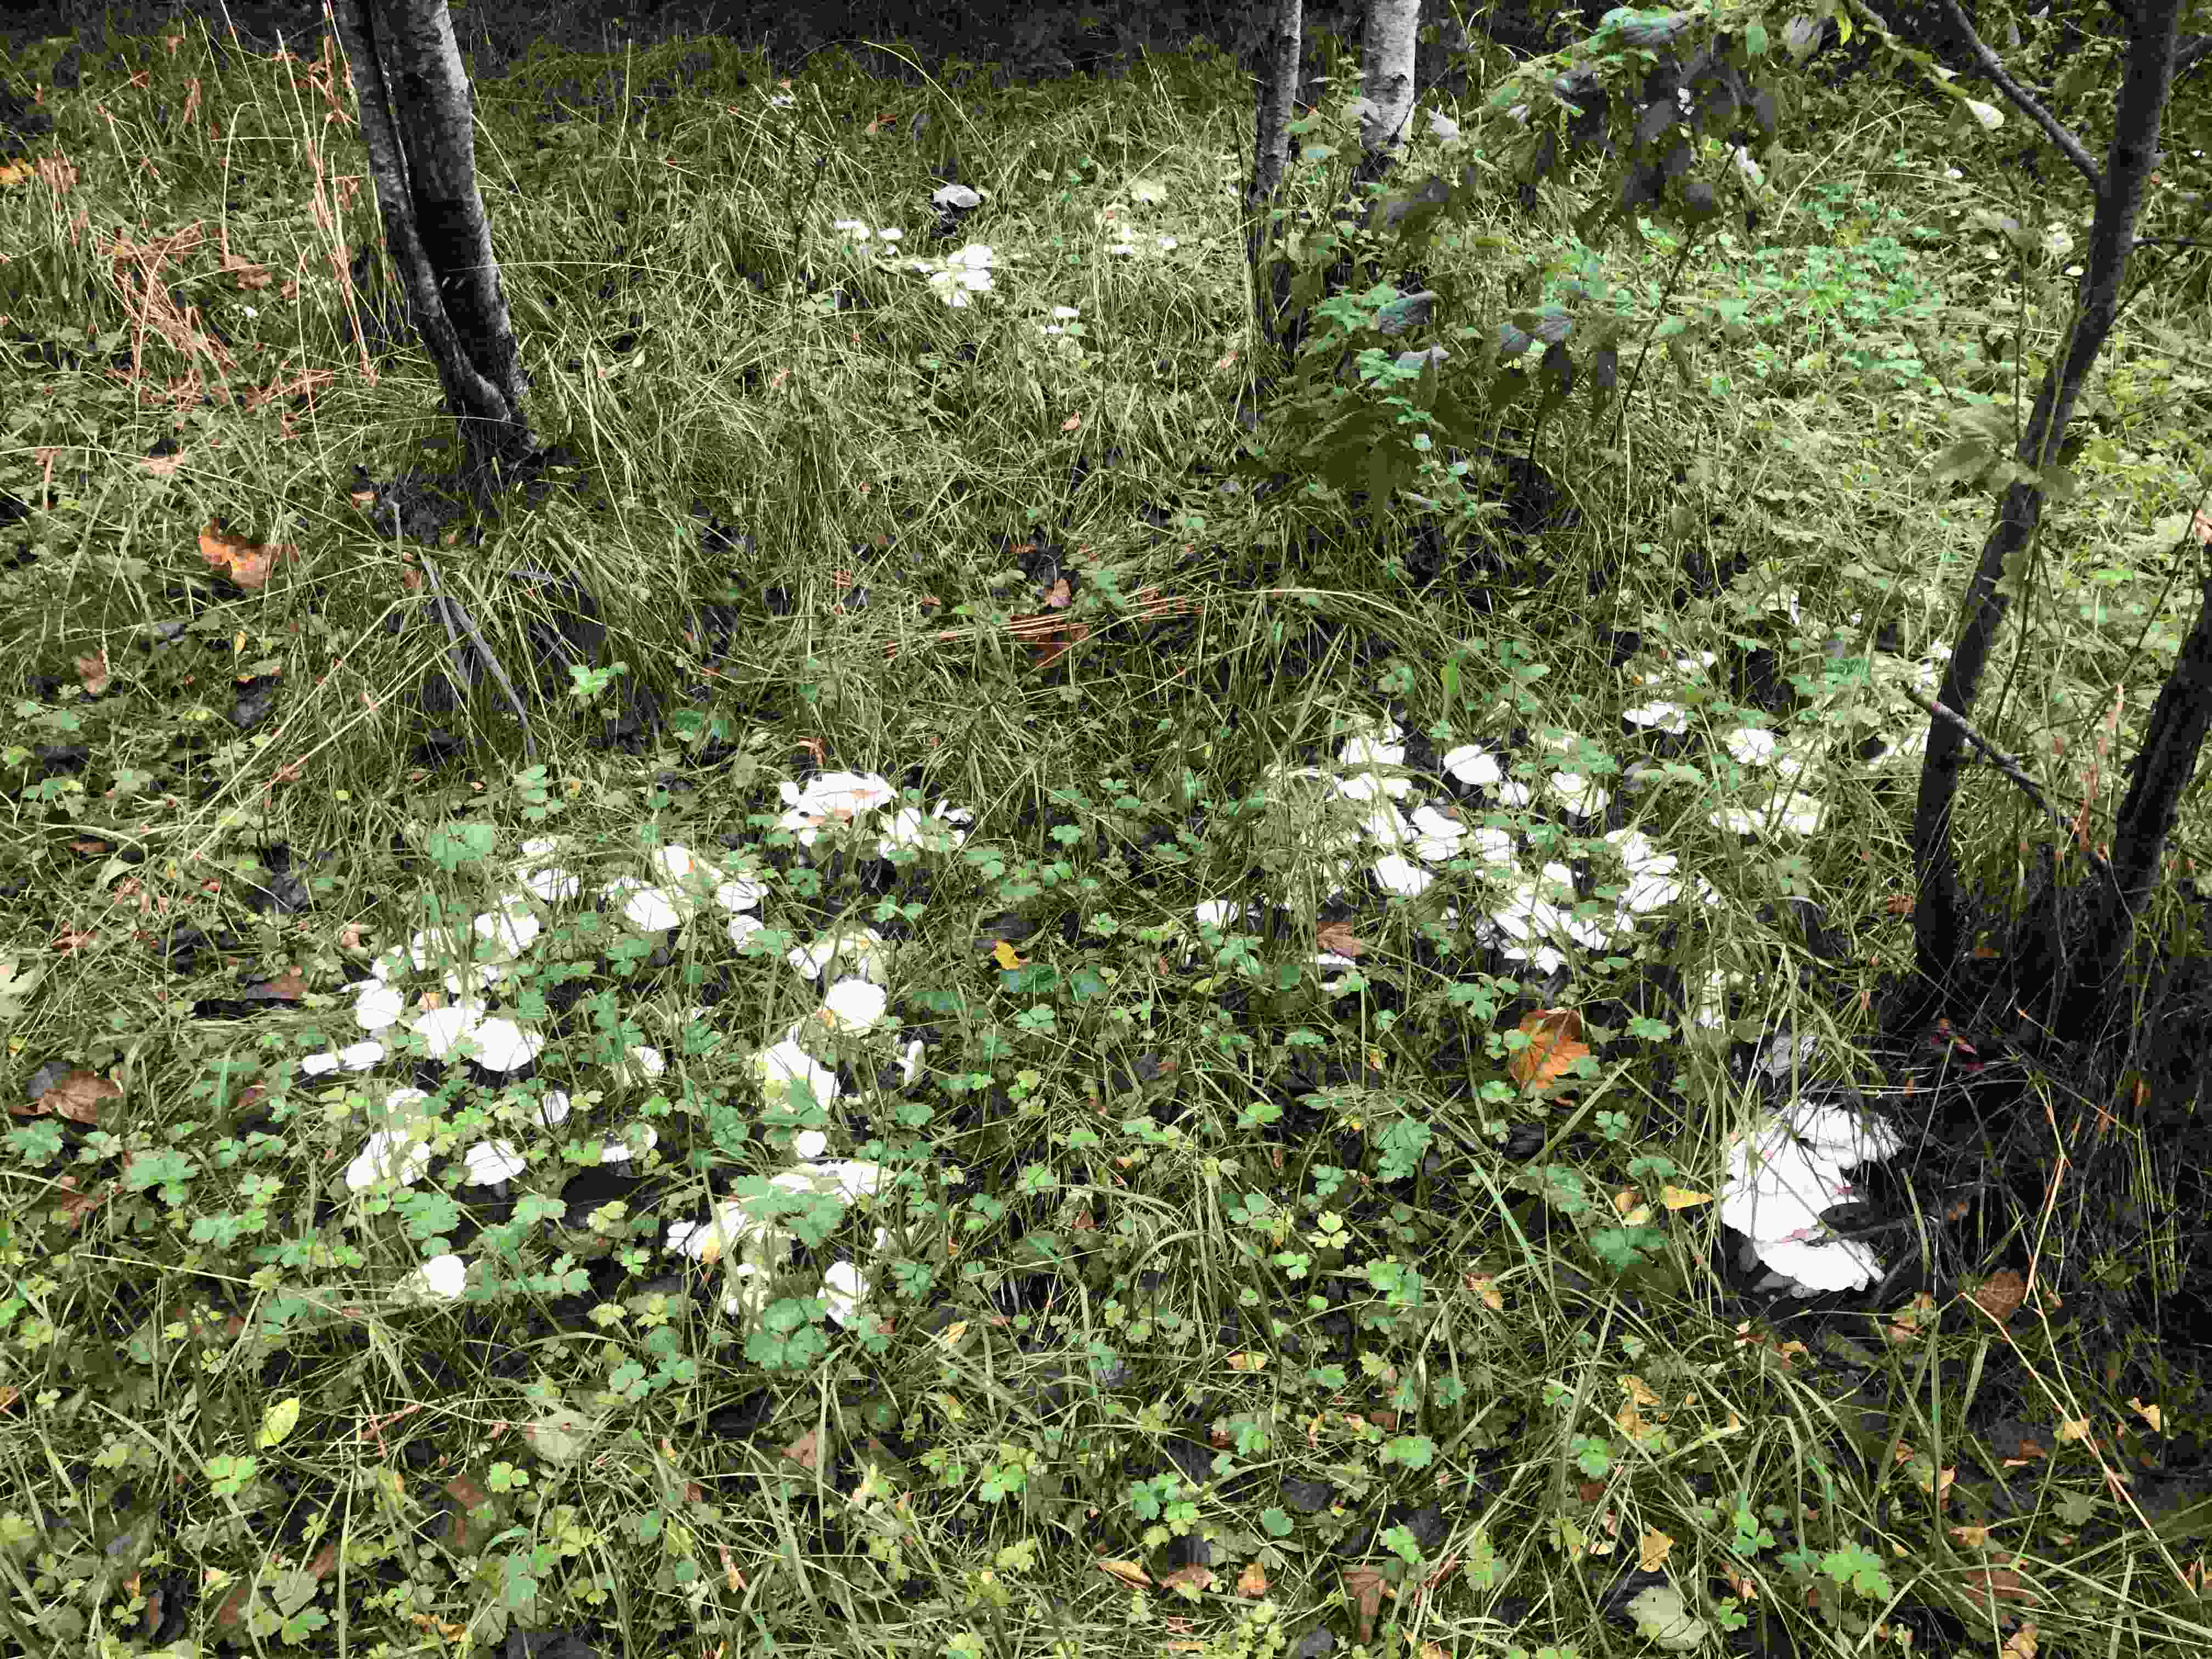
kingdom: Fungi
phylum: Basidiomycota
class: Agaricomycetes
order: Agaricales
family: Tricholomataceae
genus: Leucocybe
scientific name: Leucocybe connata
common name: knippe-tragthat
